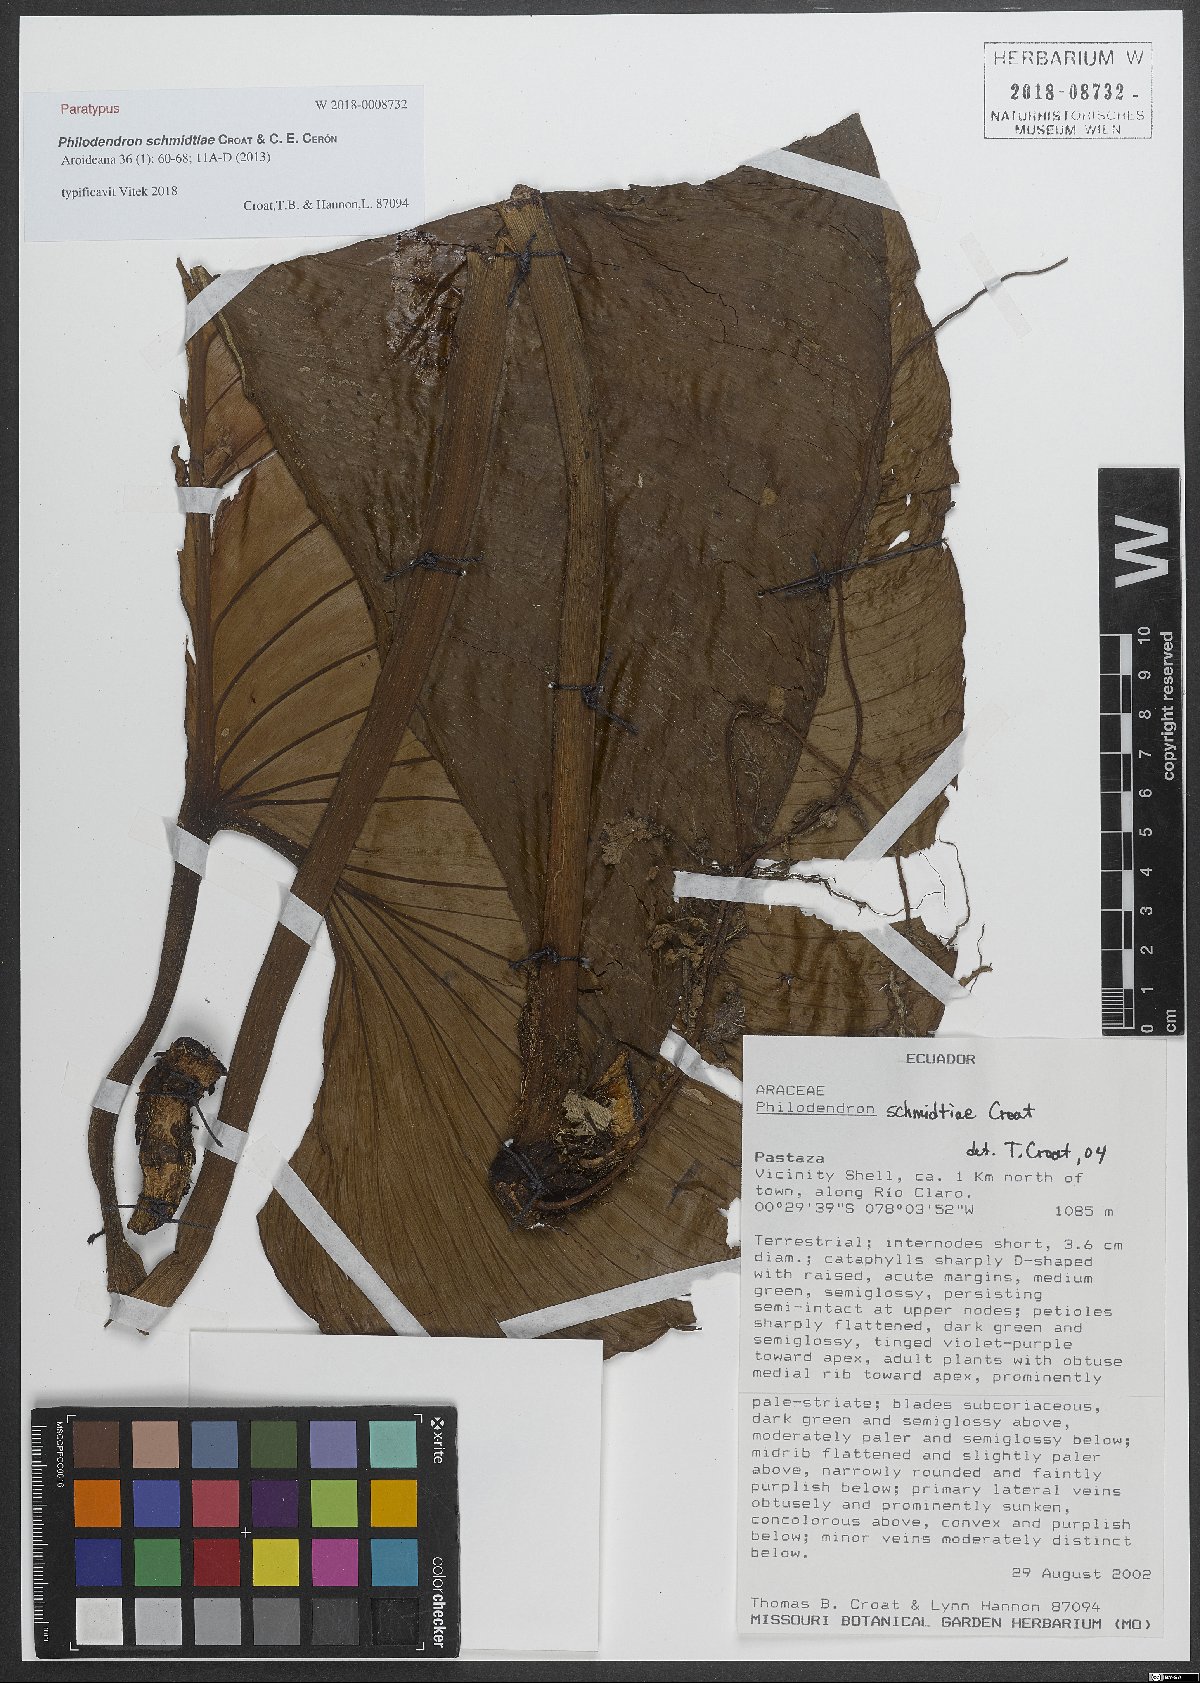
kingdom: Plantae
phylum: Tracheophyta
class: Liliopsida
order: Alismatales
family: Araceae
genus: Philodendron
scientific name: Philodendron schmidtiae
